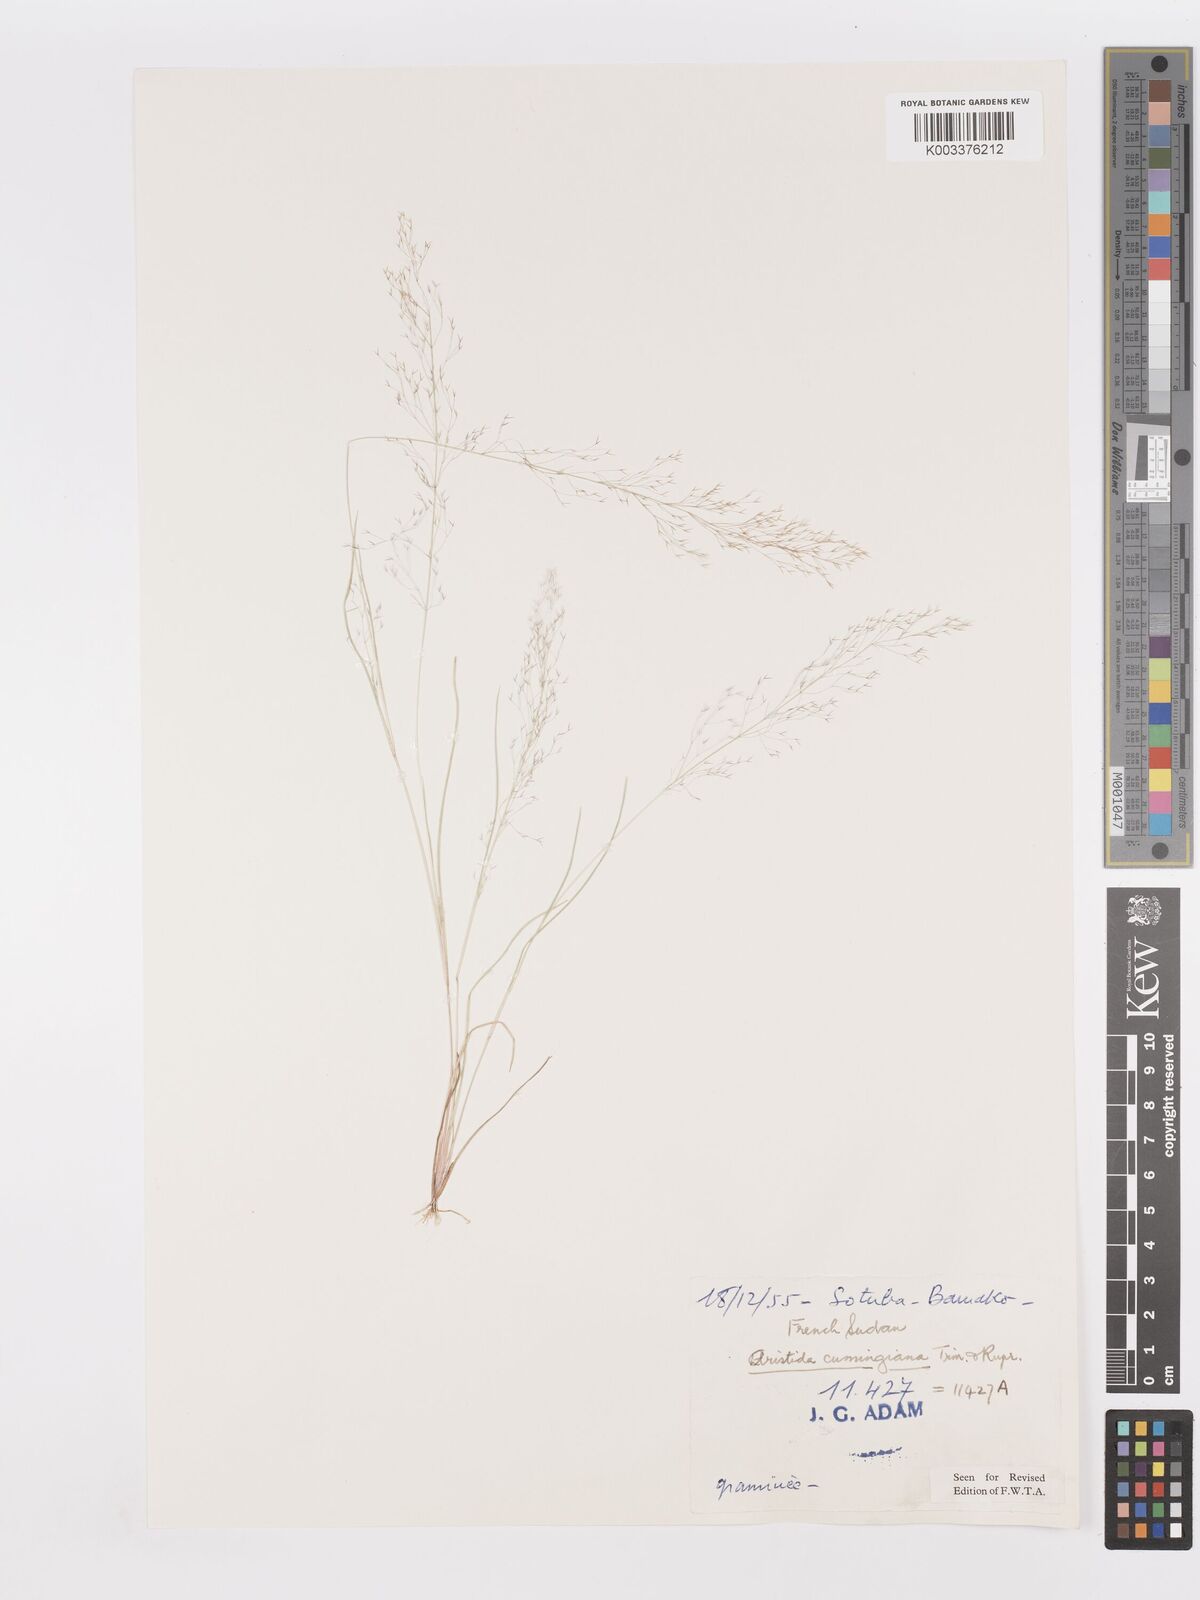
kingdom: Plantae
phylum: Tracheophyta
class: Liliopsida
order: Poales
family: Poaceae
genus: Aristida
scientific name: Aristida cumingiana
